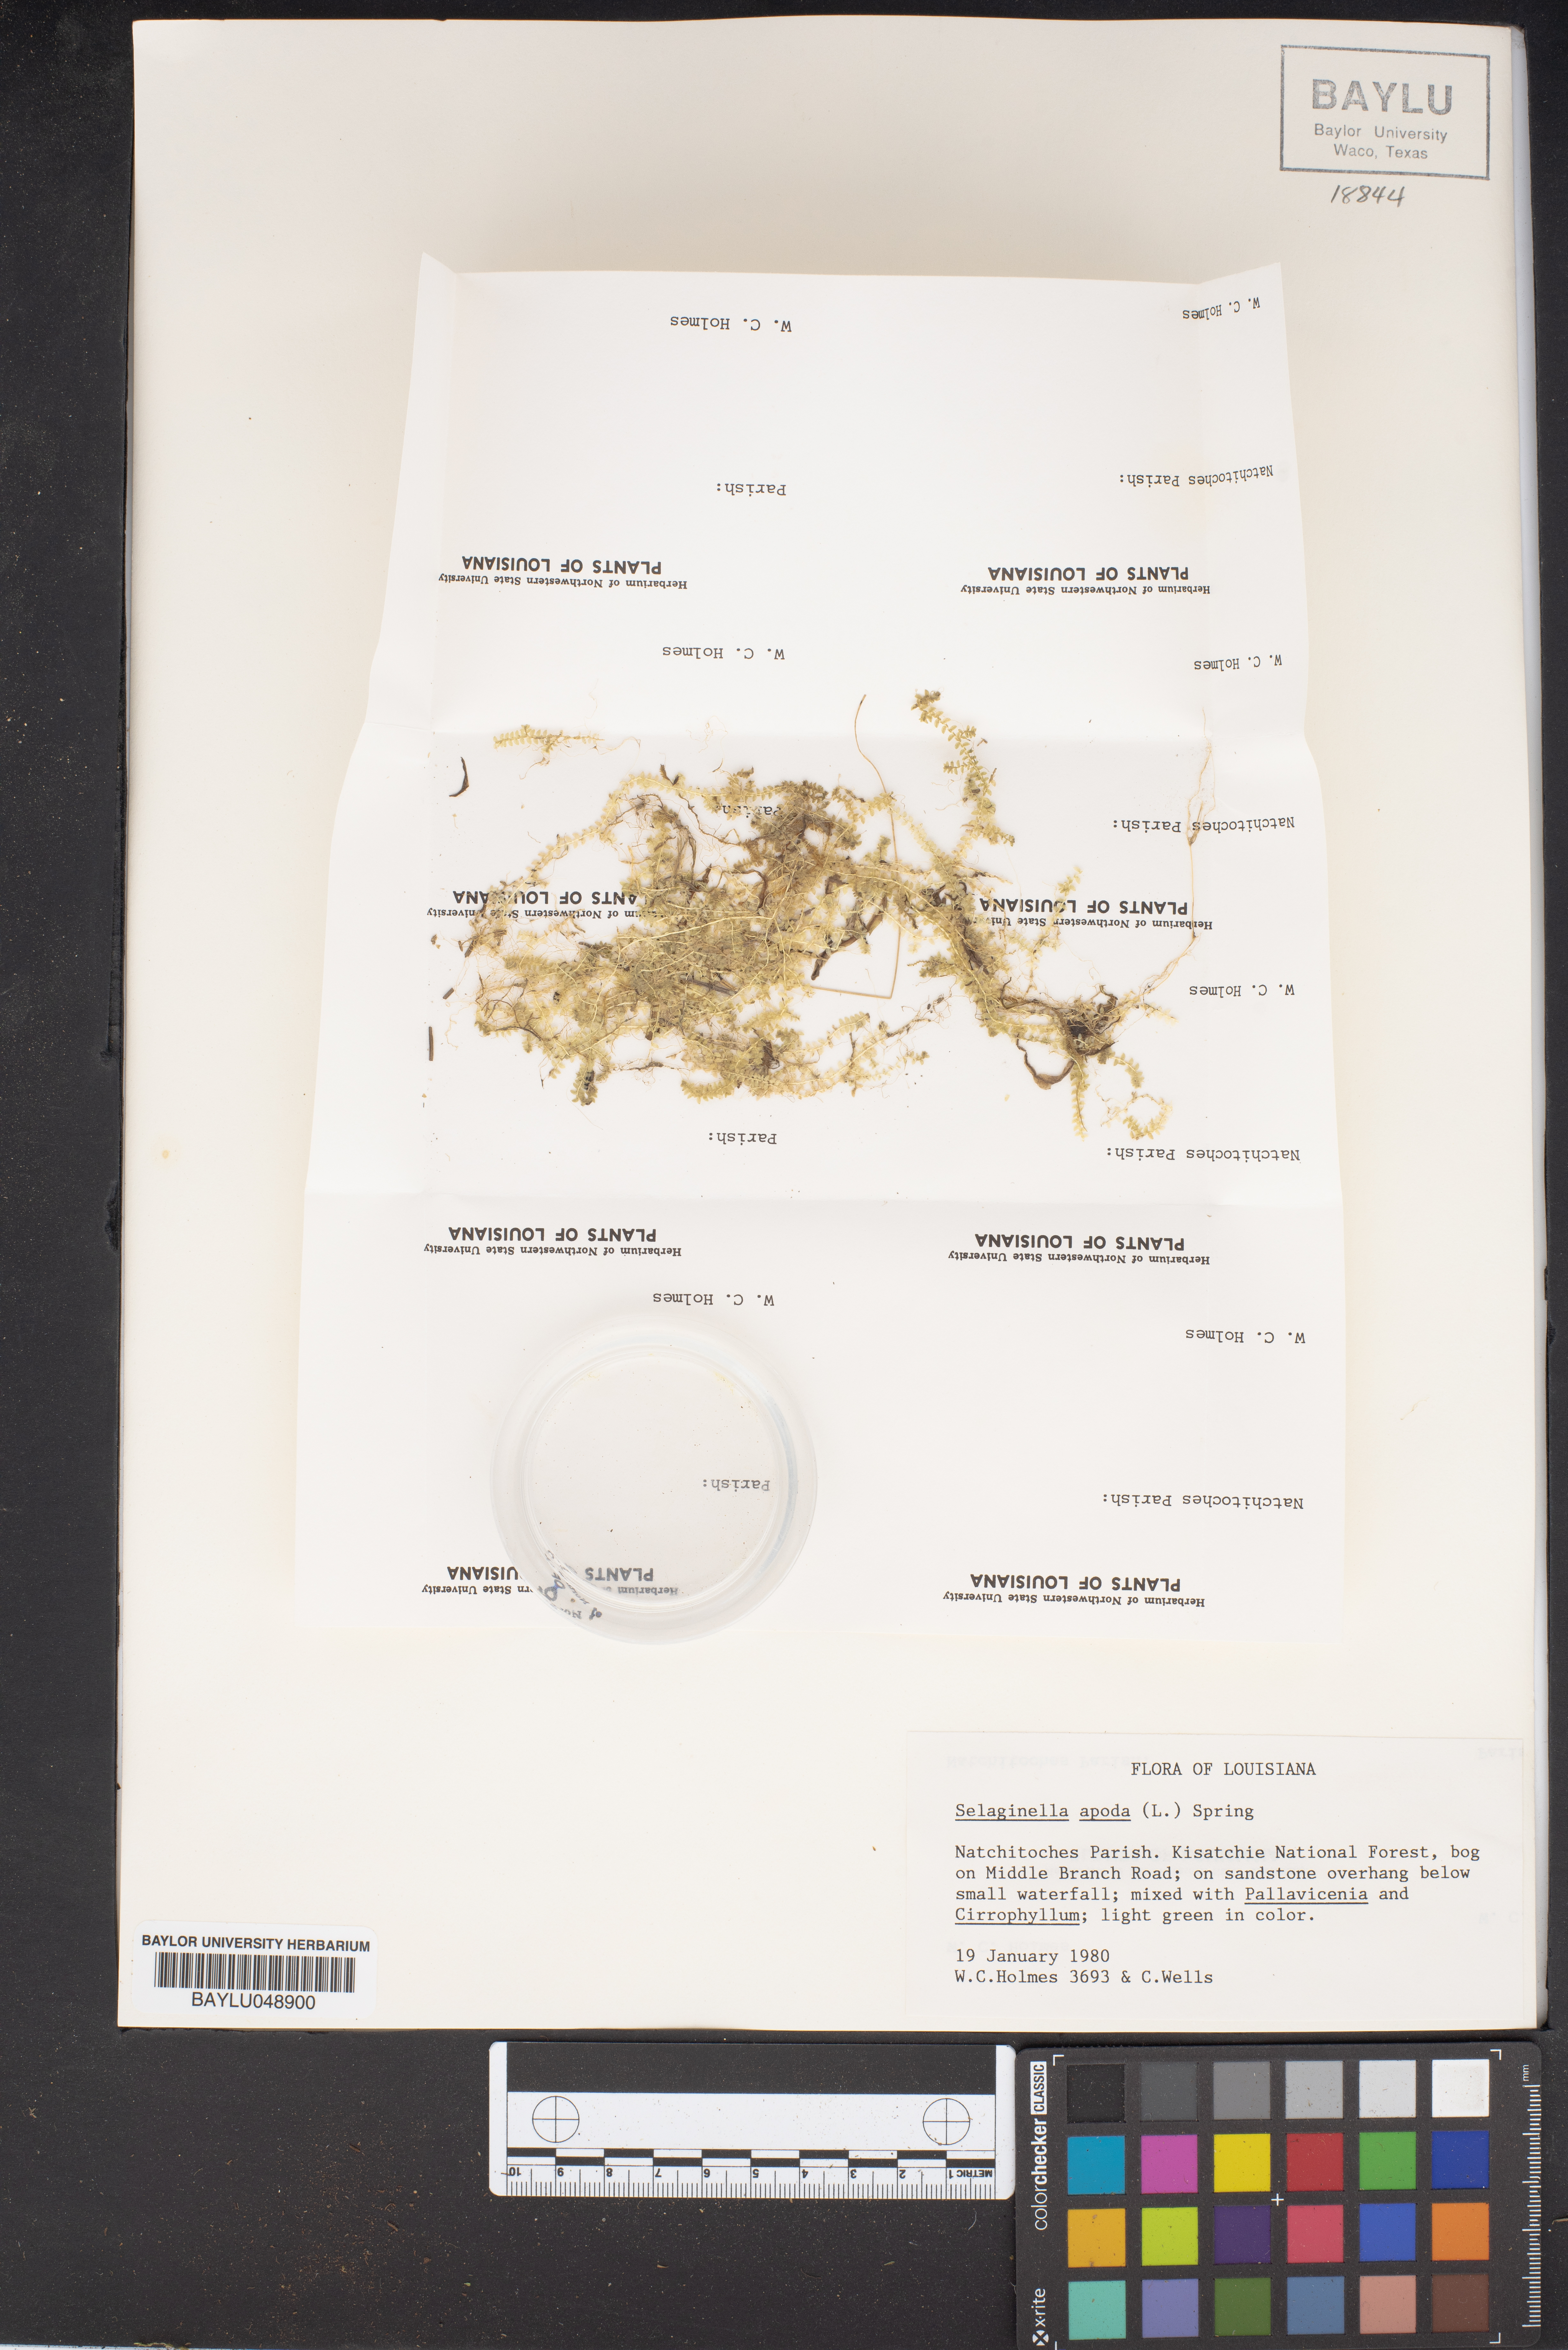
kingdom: Plantae
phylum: Tracheophyta
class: Lycopodiopsida
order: Selaginellales
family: Selaginellaceae
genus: Selaginella
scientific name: Selaginella apoda
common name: Creeping spikemoss
